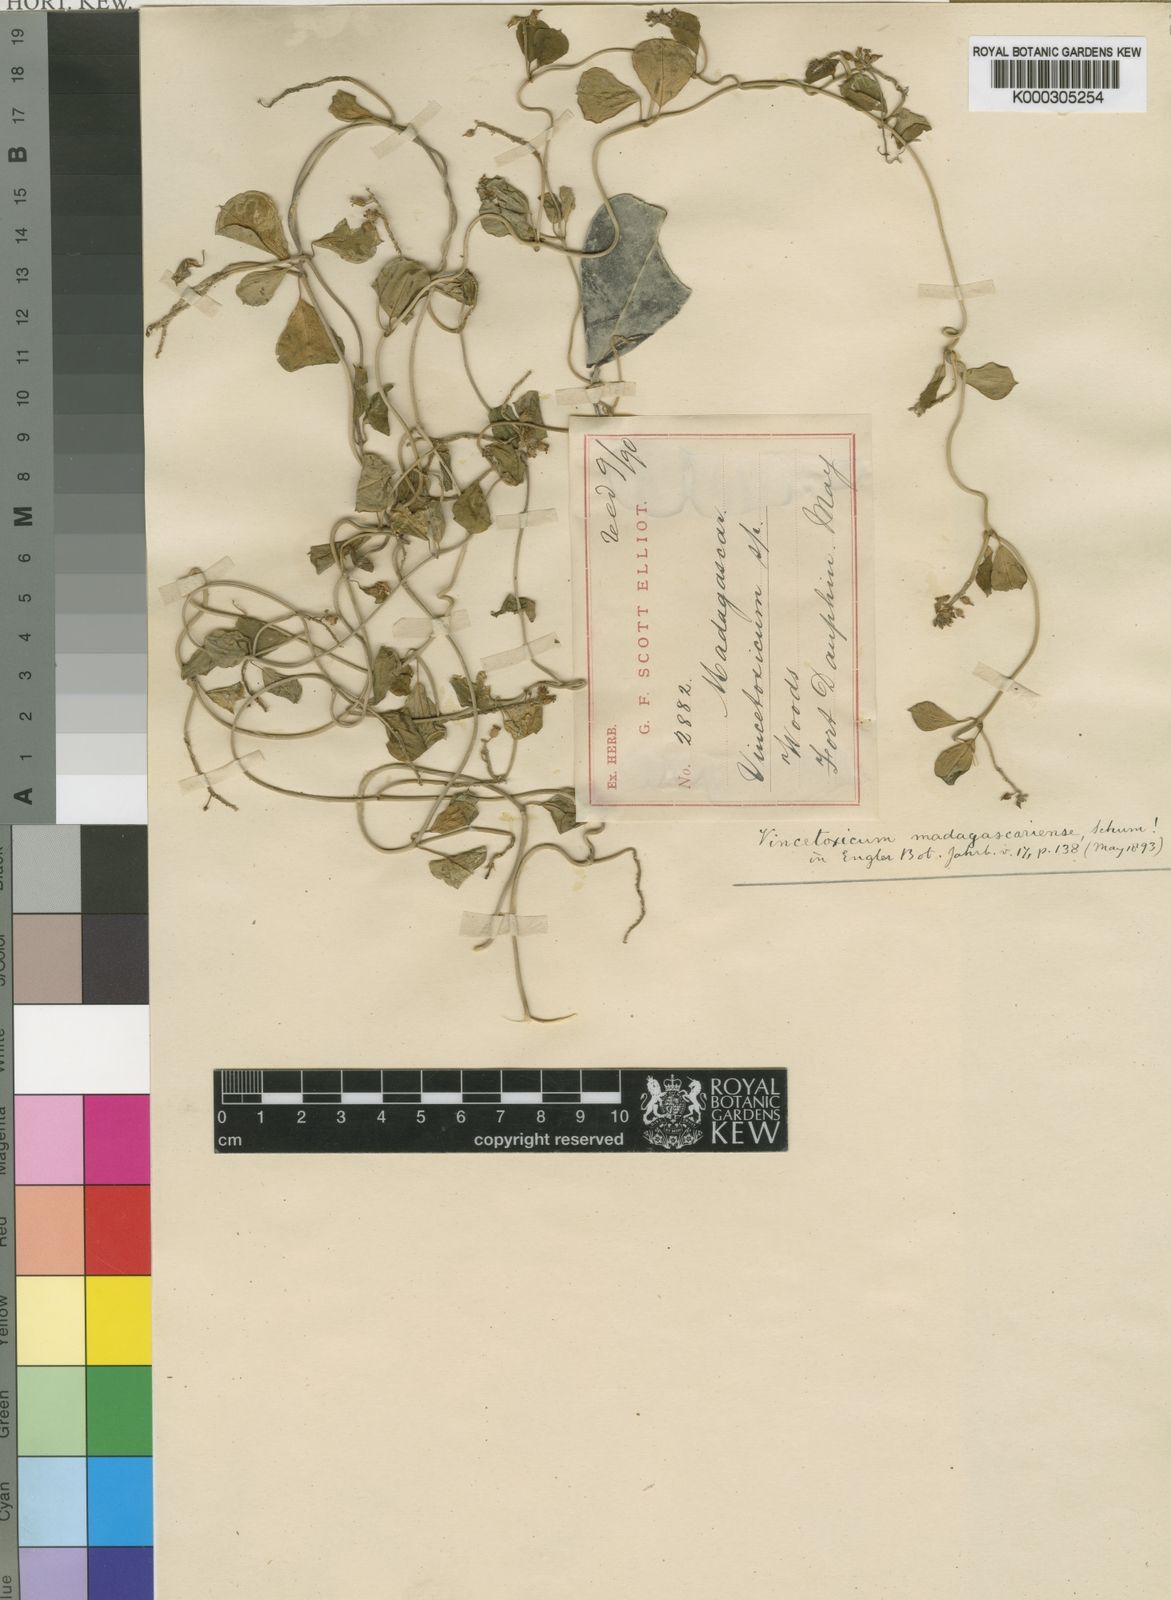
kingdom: Plantae
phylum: Tracheophyta
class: Magnoliopsida
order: Gentianales
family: Apocynaceae
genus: Cynanchum
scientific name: Cynanchum madagascariense
